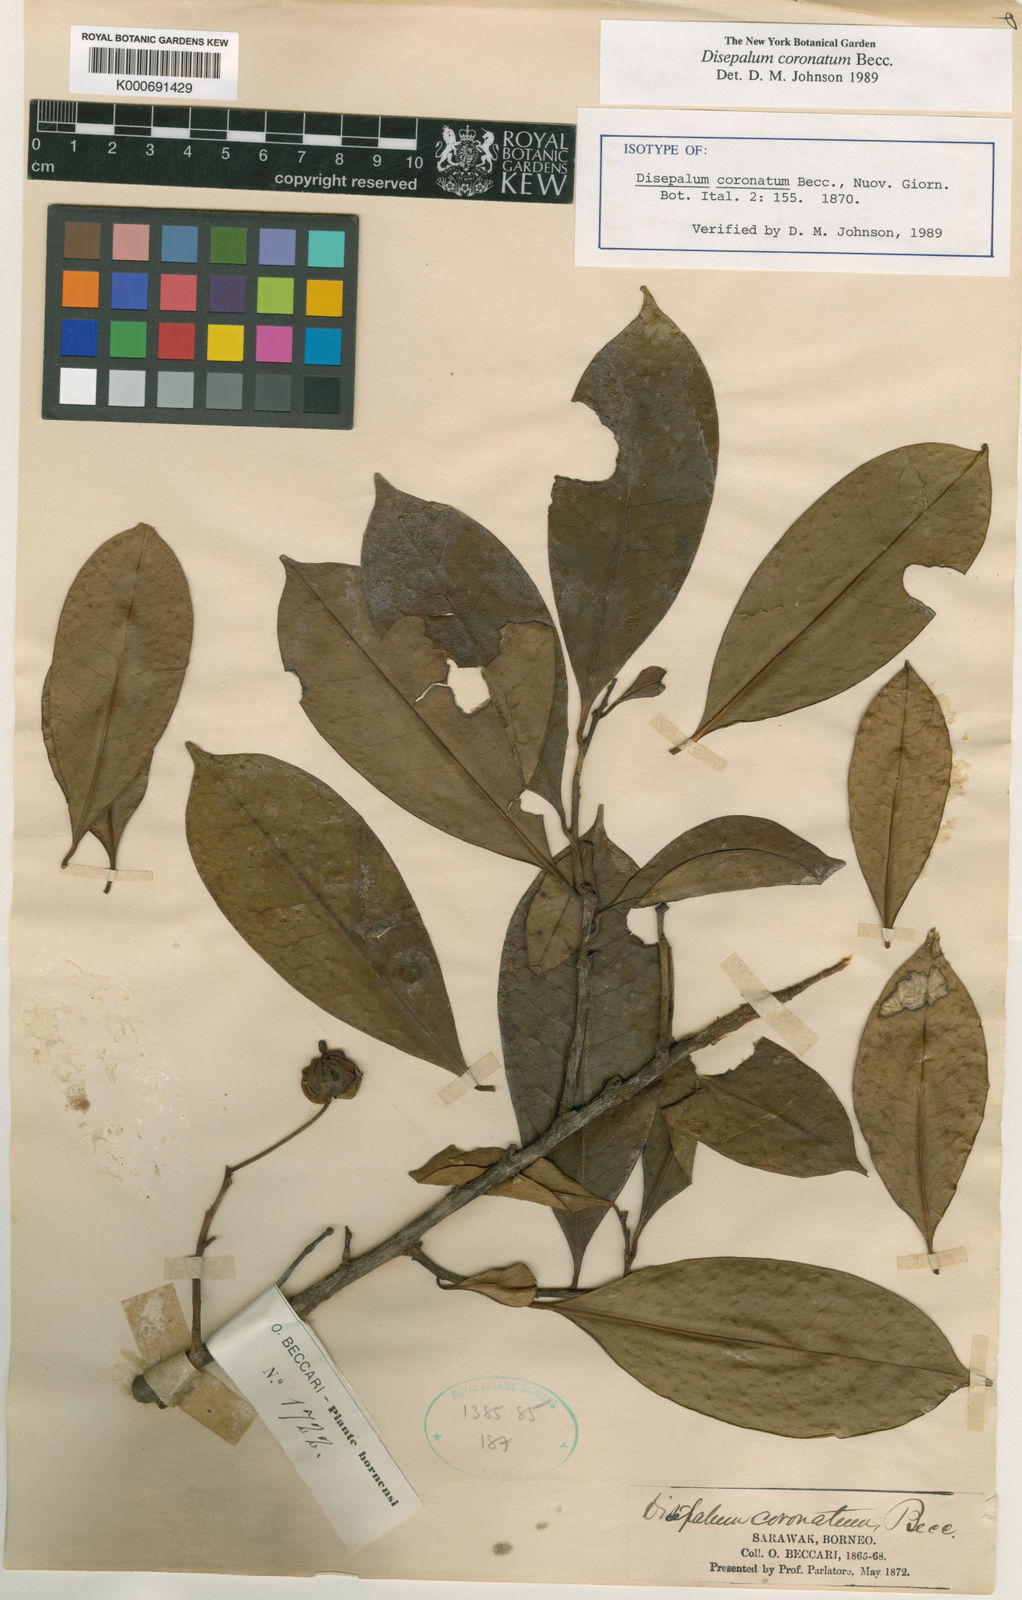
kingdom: Plantae
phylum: Tracheophyta
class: Magnoliopsida
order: Magnoliales
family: Annonaceae
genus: Disepalum
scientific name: Disepalum coronatum
